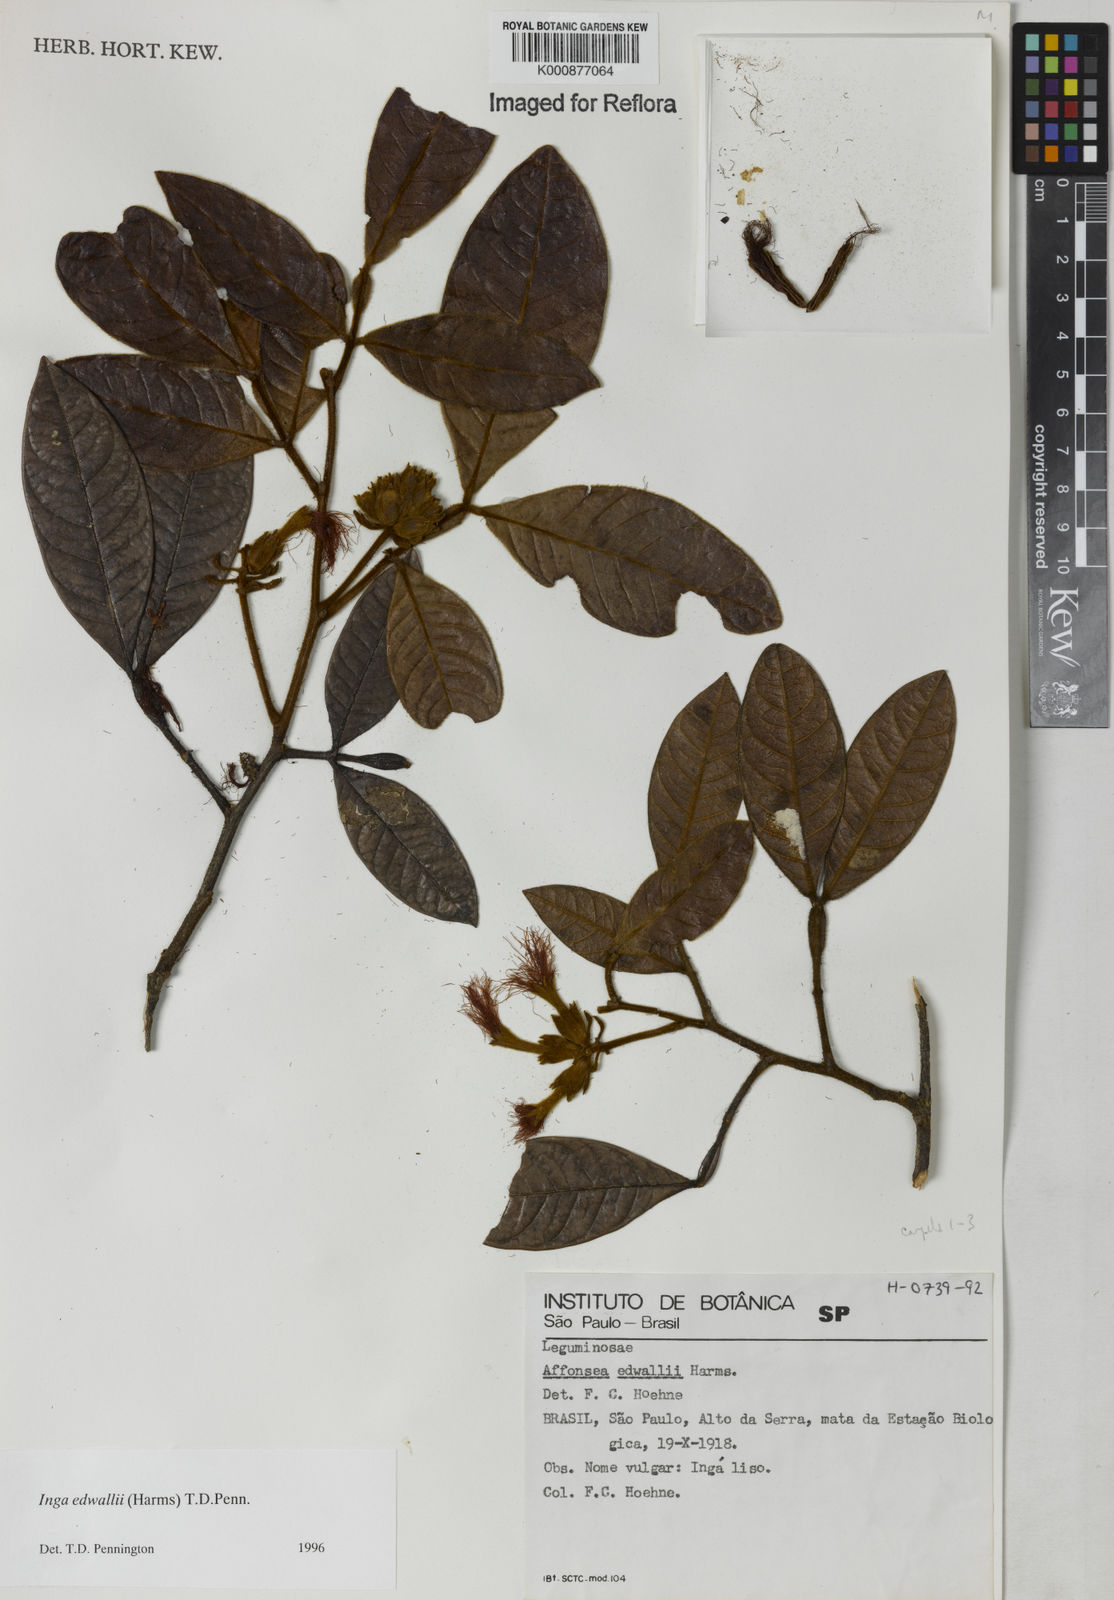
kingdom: Plantae
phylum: Tracheophyta
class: Magnoliopsida
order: Fabales
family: Fabaceae
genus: Inga
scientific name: Inga edwallii
